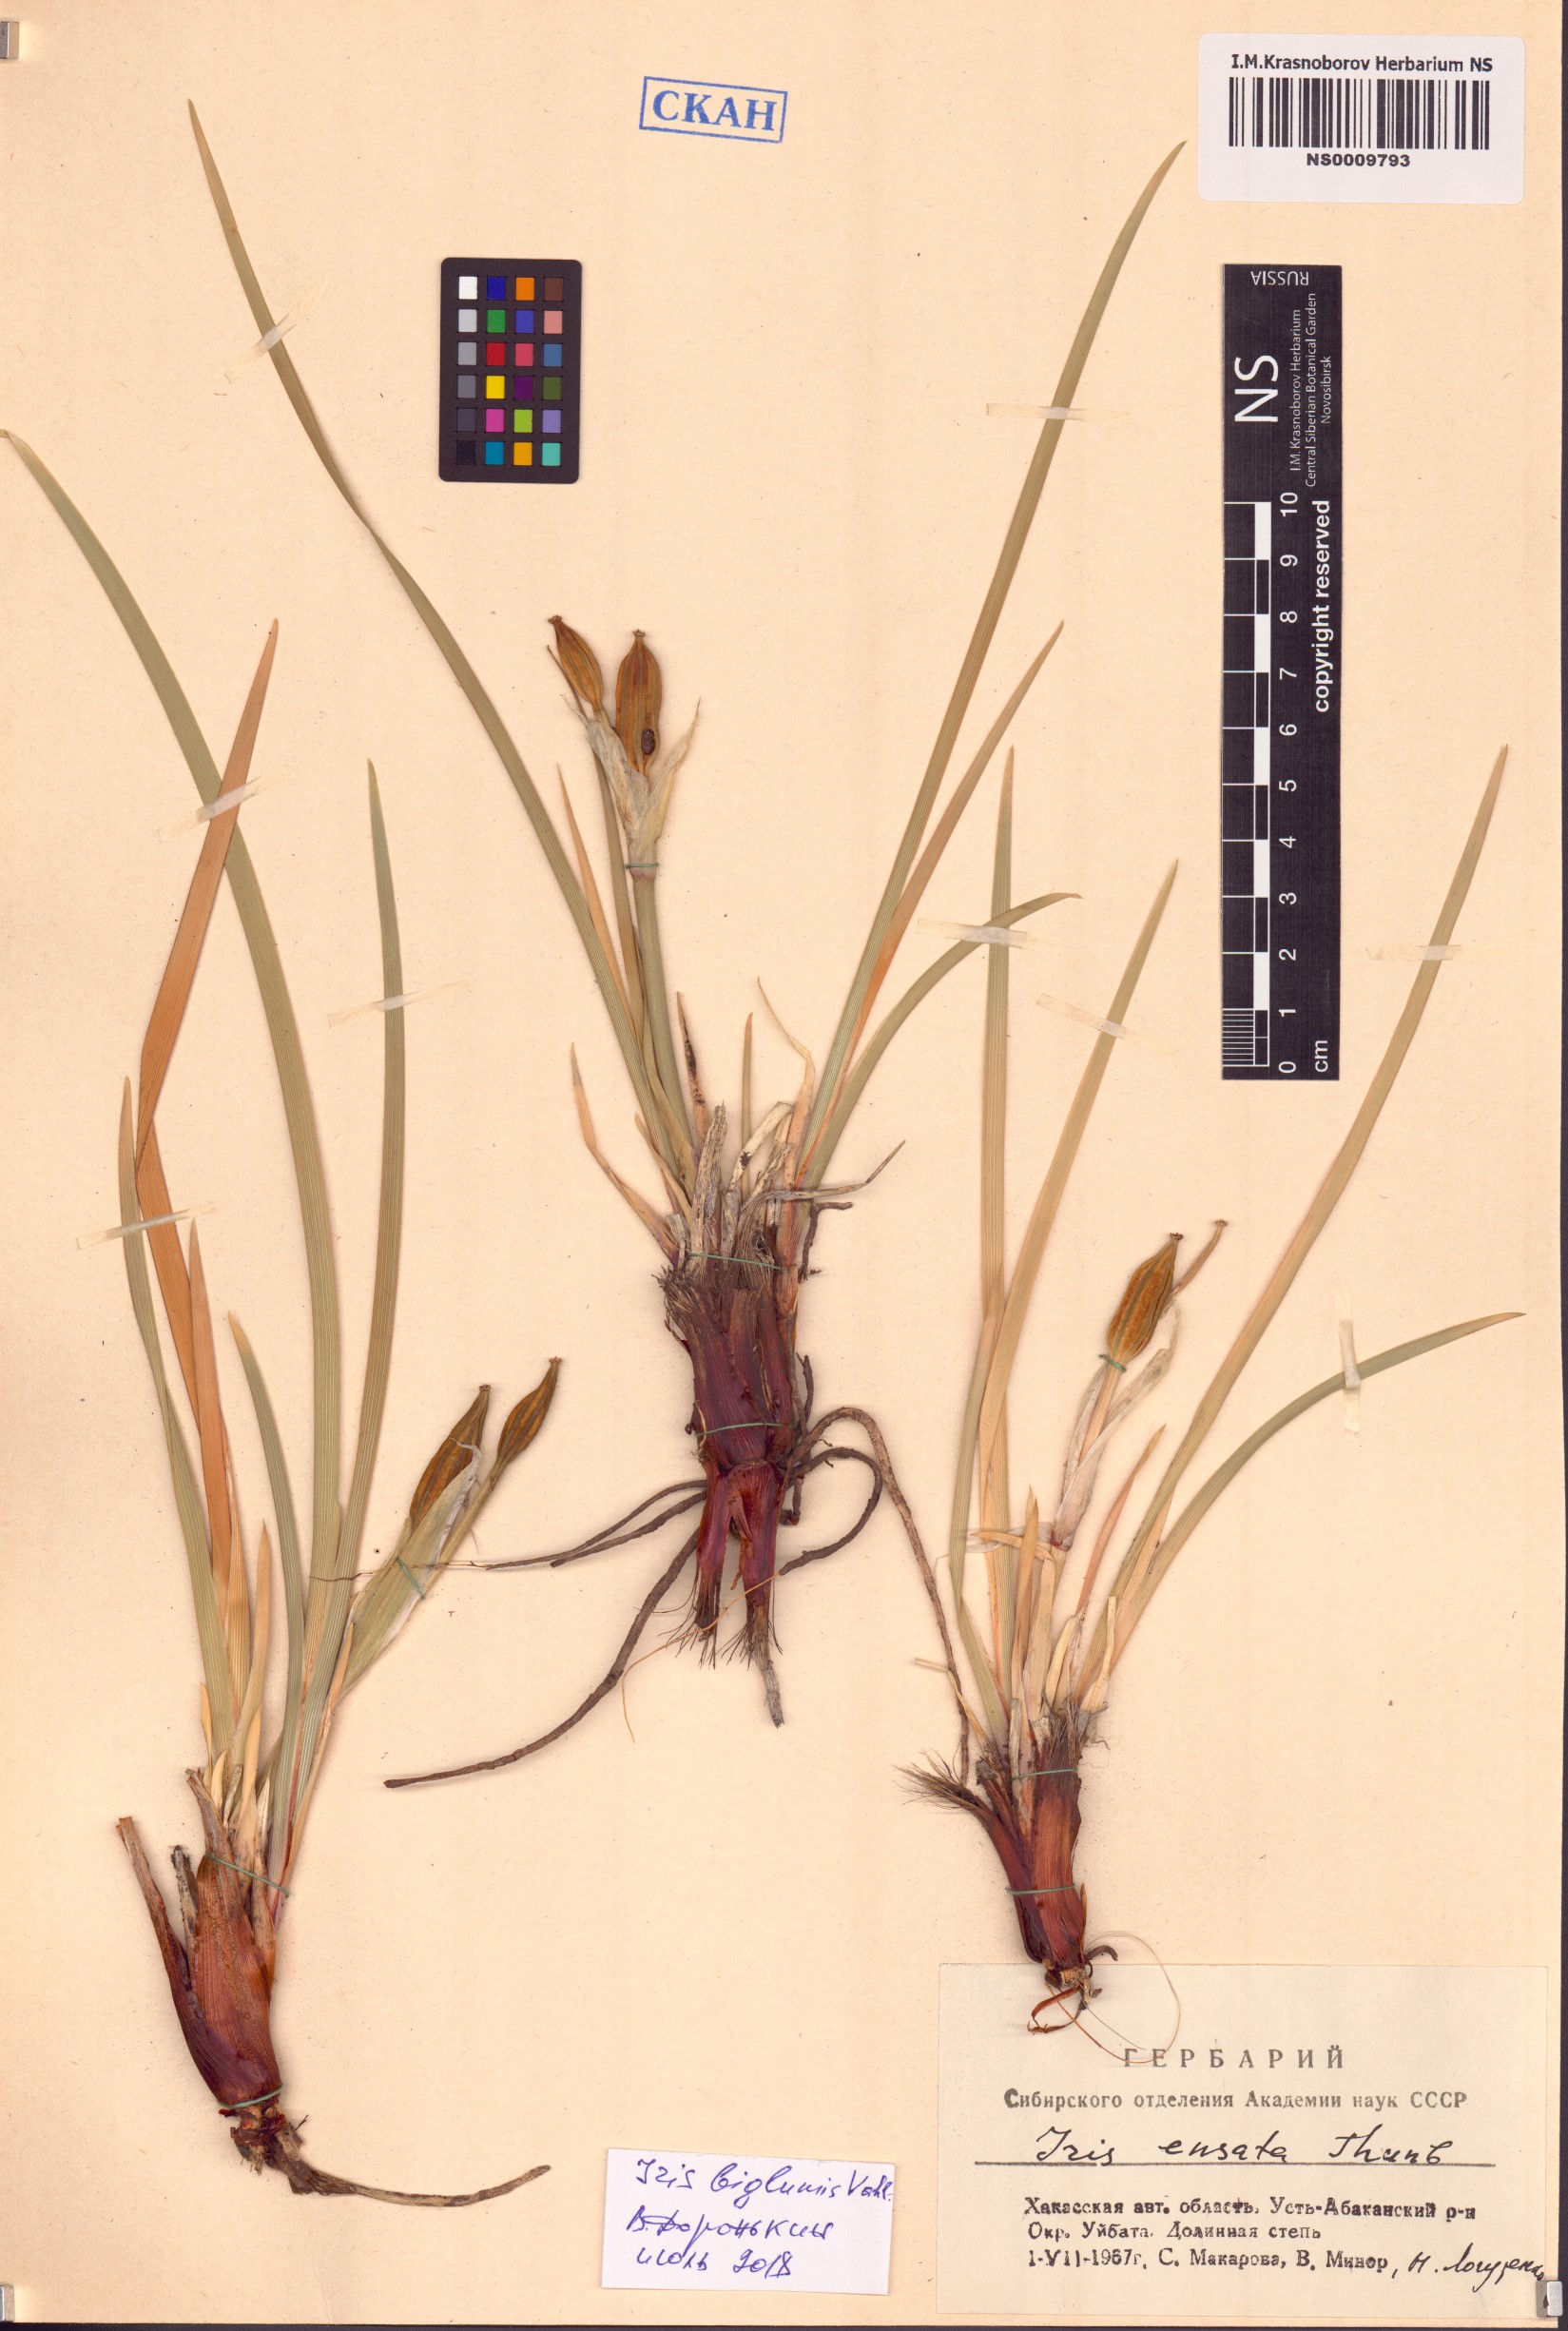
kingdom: Plantae
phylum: Tracheophyta
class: Liliopsida
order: Asparagales
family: Iridaceae
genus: Iris
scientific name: Iris lactea
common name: White-flower chinese iris
